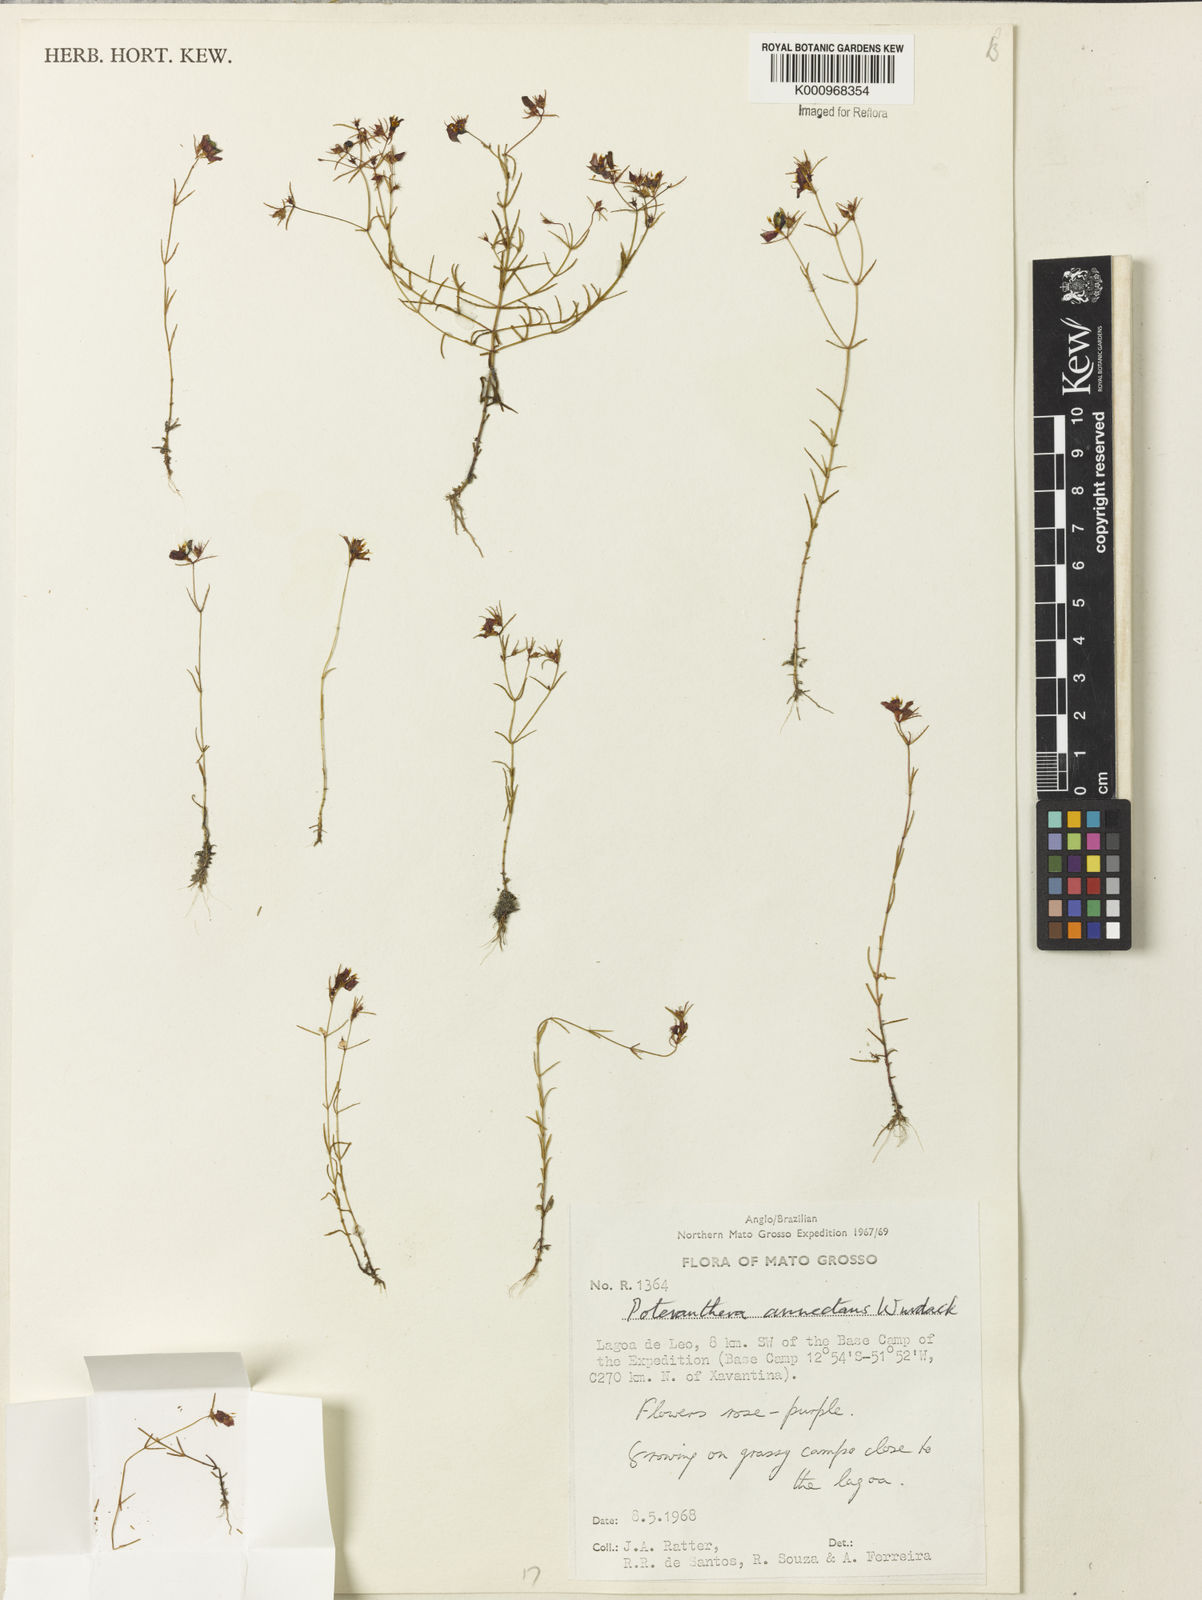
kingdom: Plantae
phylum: Tracheophyta
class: Magnoliopsida
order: Myrtales
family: Melastomataceae
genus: Poteranthera
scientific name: Poteranthera annectans
